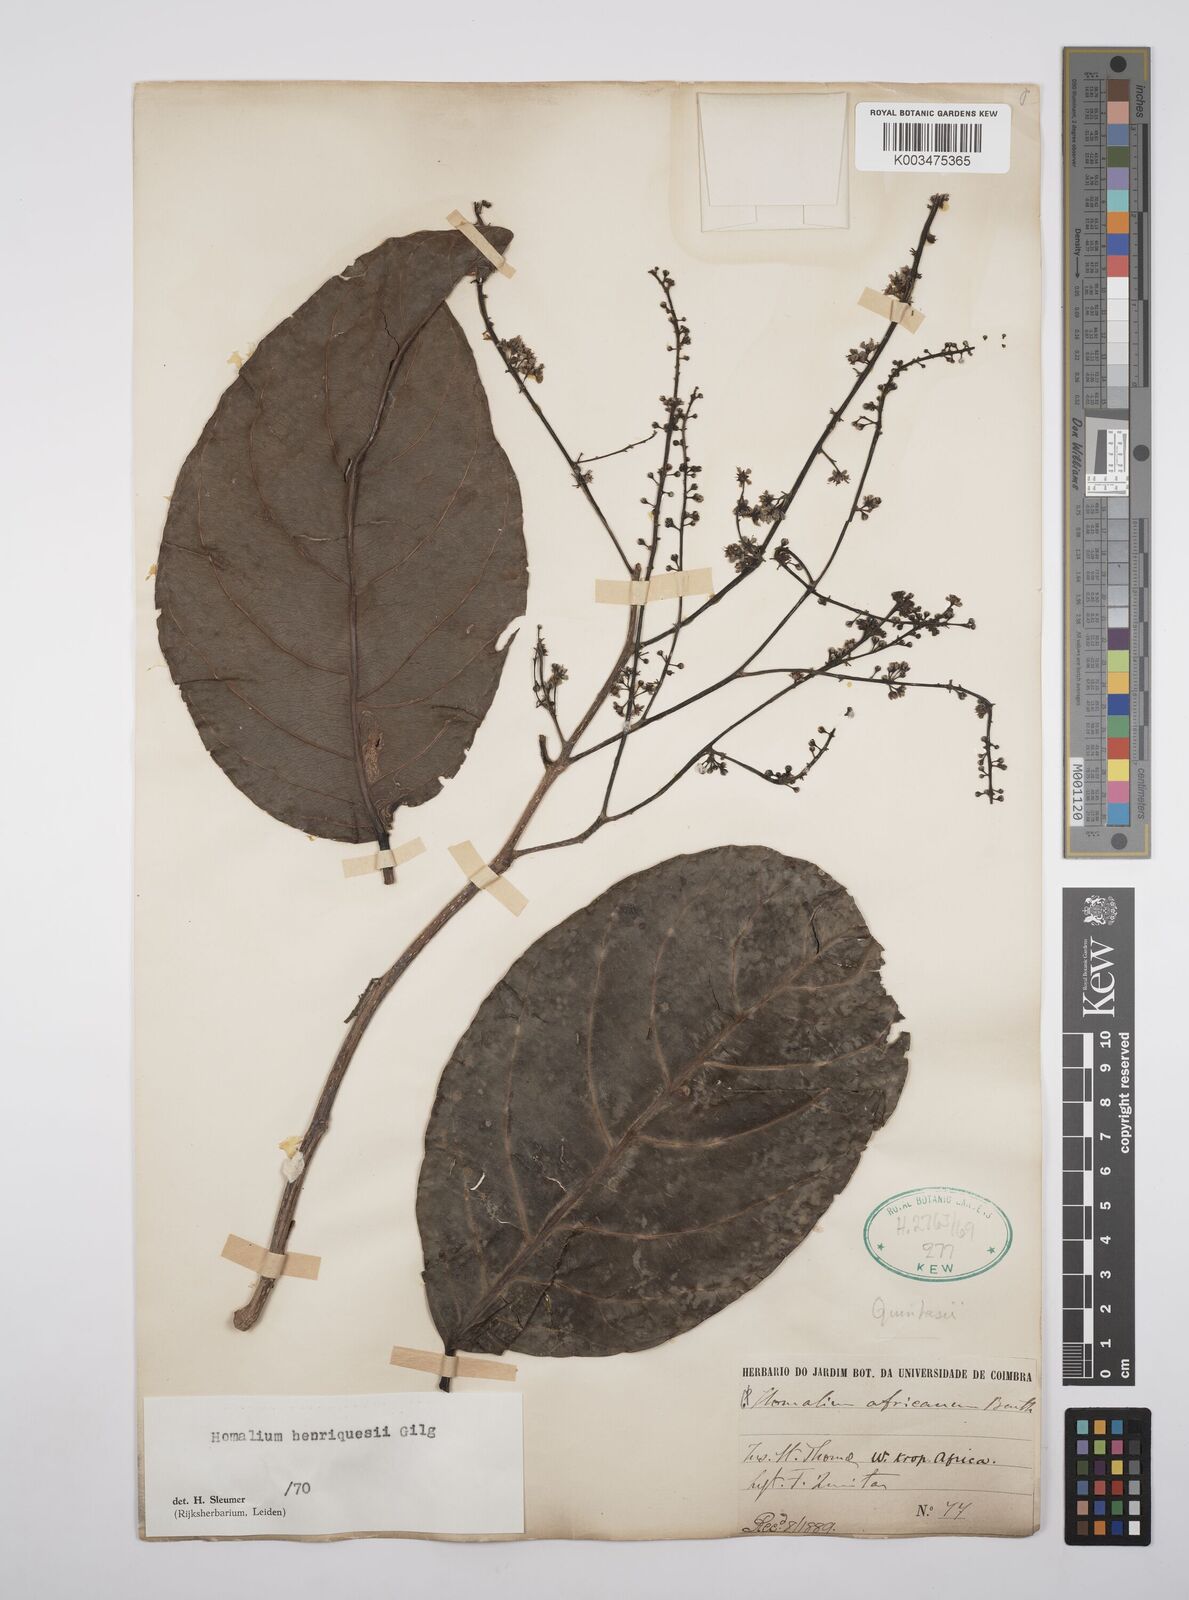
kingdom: Plantae
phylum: Tracheophyta
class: Magnoliopsida
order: Malpighiales
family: Salicaceae
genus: Homalium
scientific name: Homalium henriquesii
